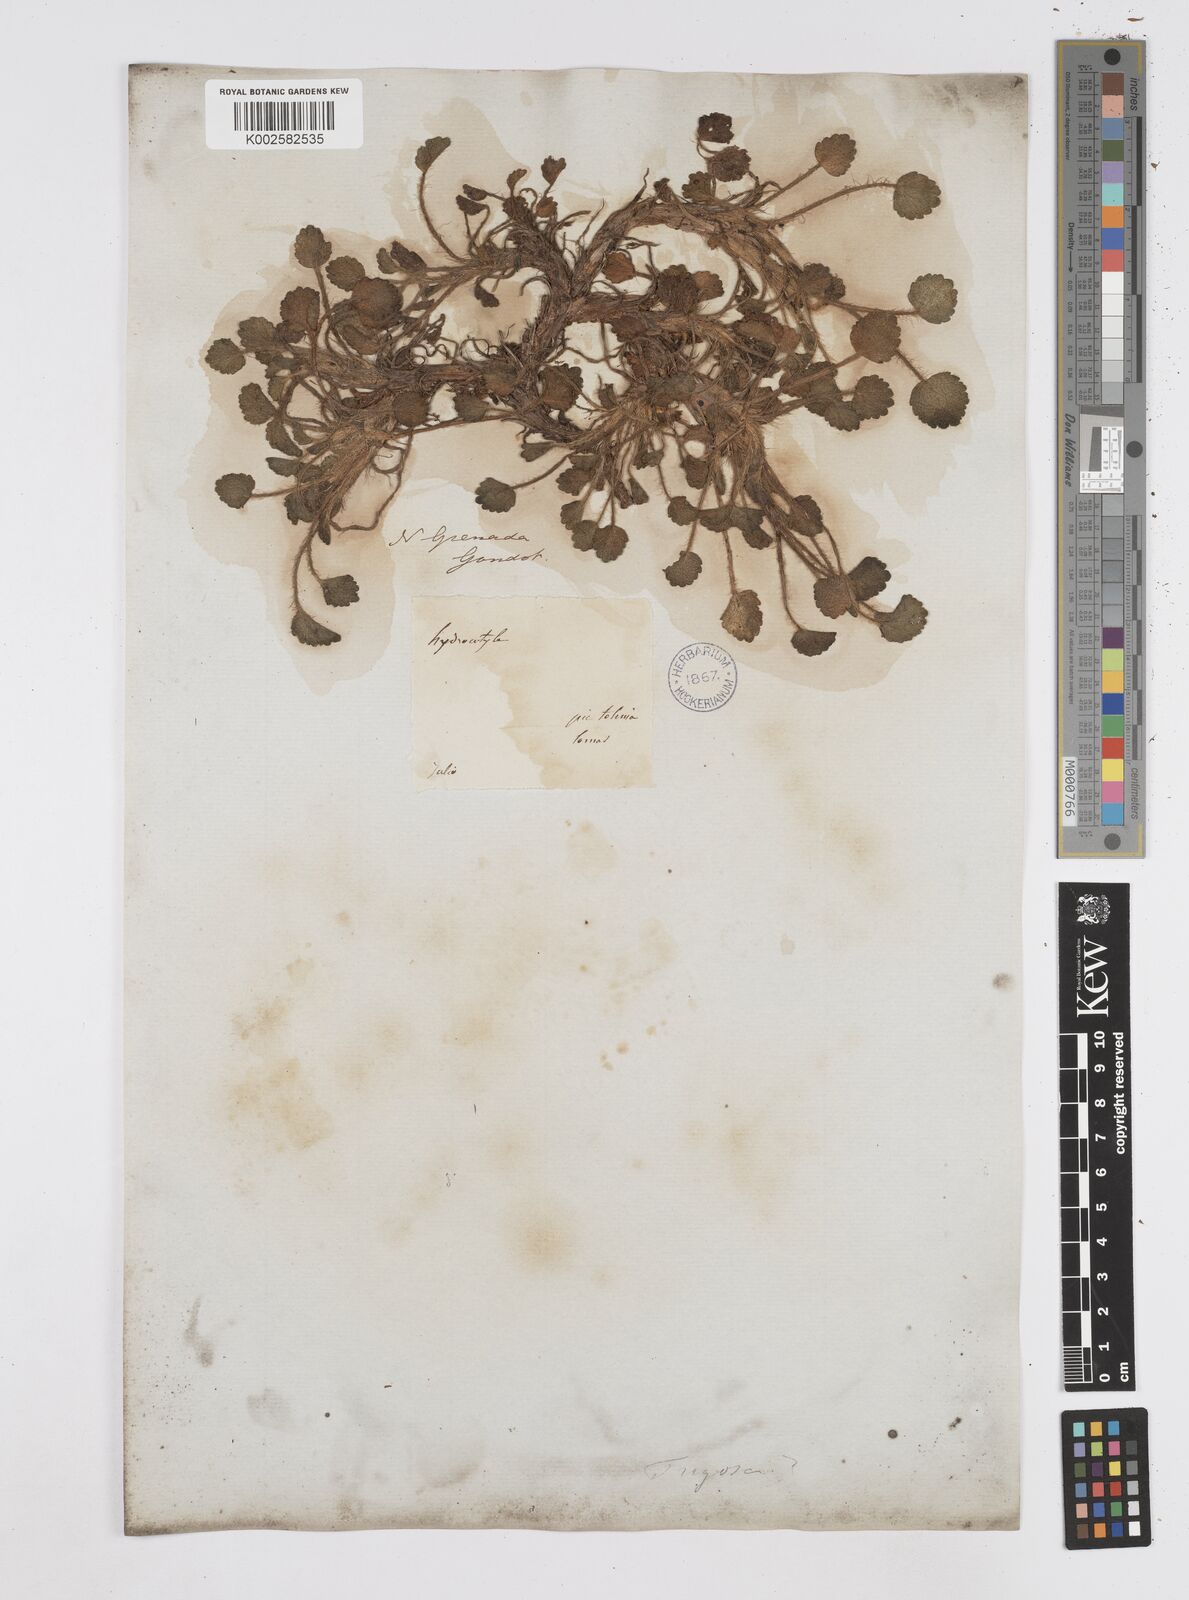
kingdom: Plantae
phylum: Tracheophyta
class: Magnoliopsida
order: Apiales
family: Apiaceae
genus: Azorella
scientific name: Azorella crenata
